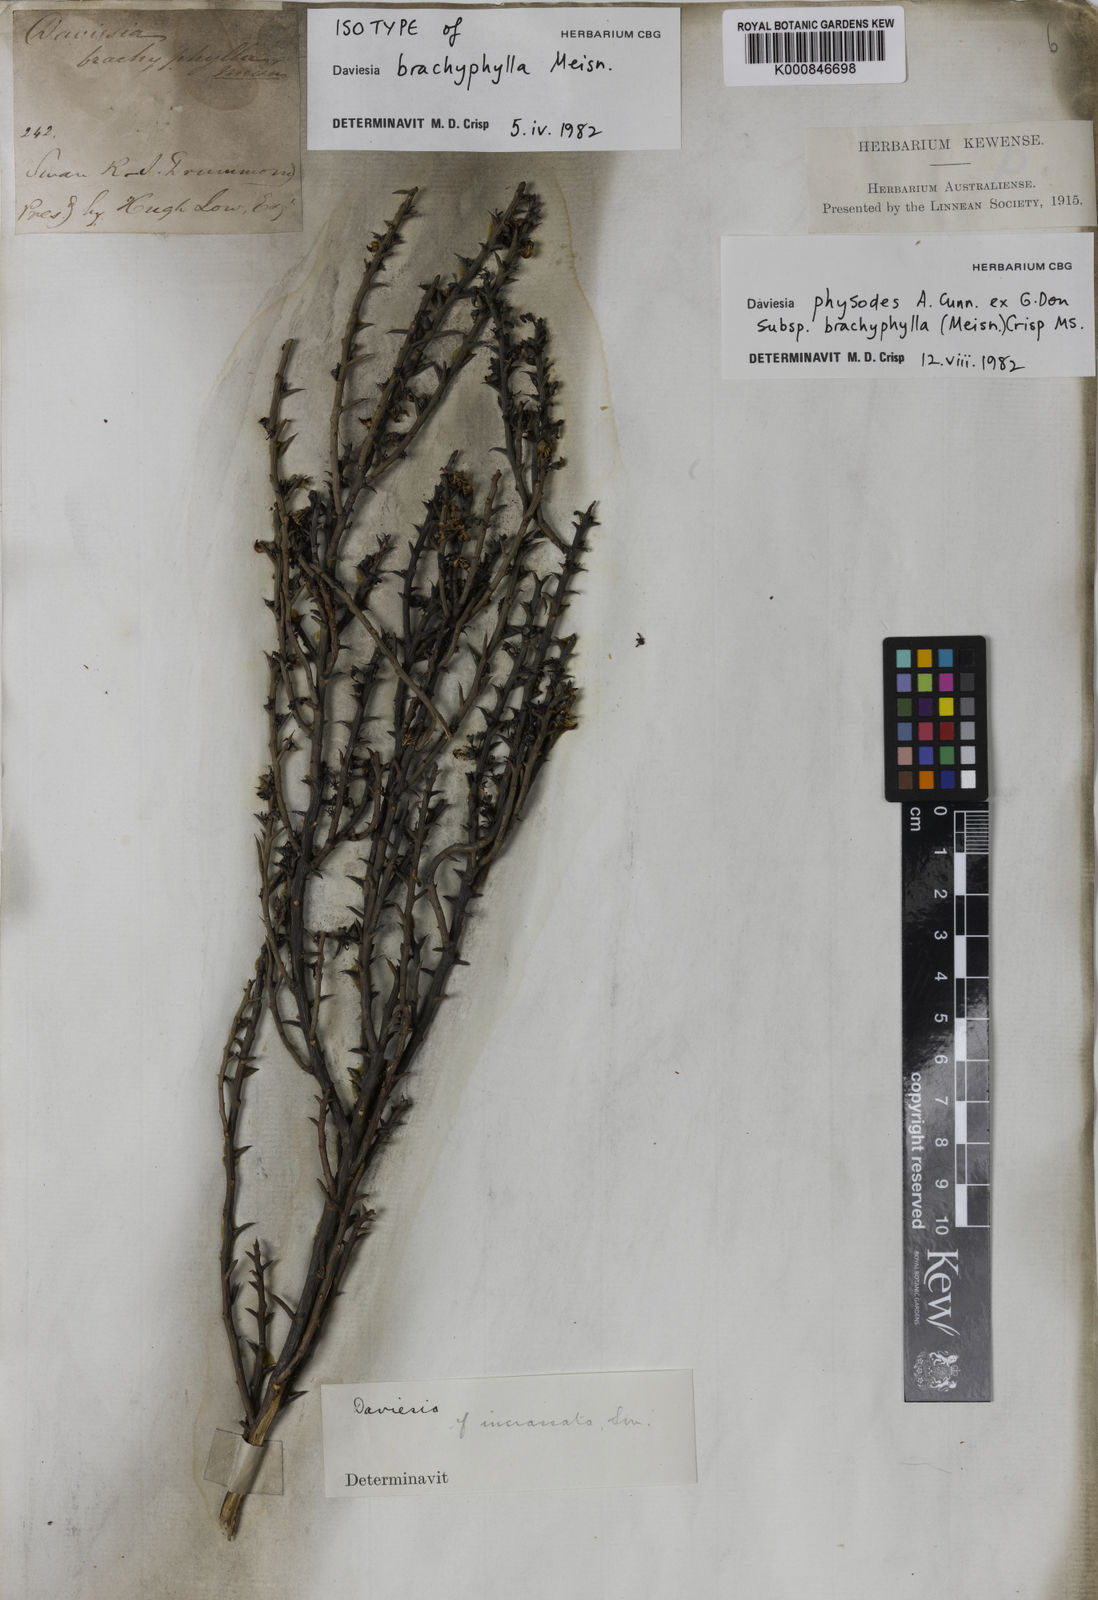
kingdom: Plantae
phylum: Tracheophyta
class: Magnoliopsida
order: Fabales
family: Fabaceae
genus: Daviesia
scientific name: Daviesia physodes
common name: Prickly bitter pea
